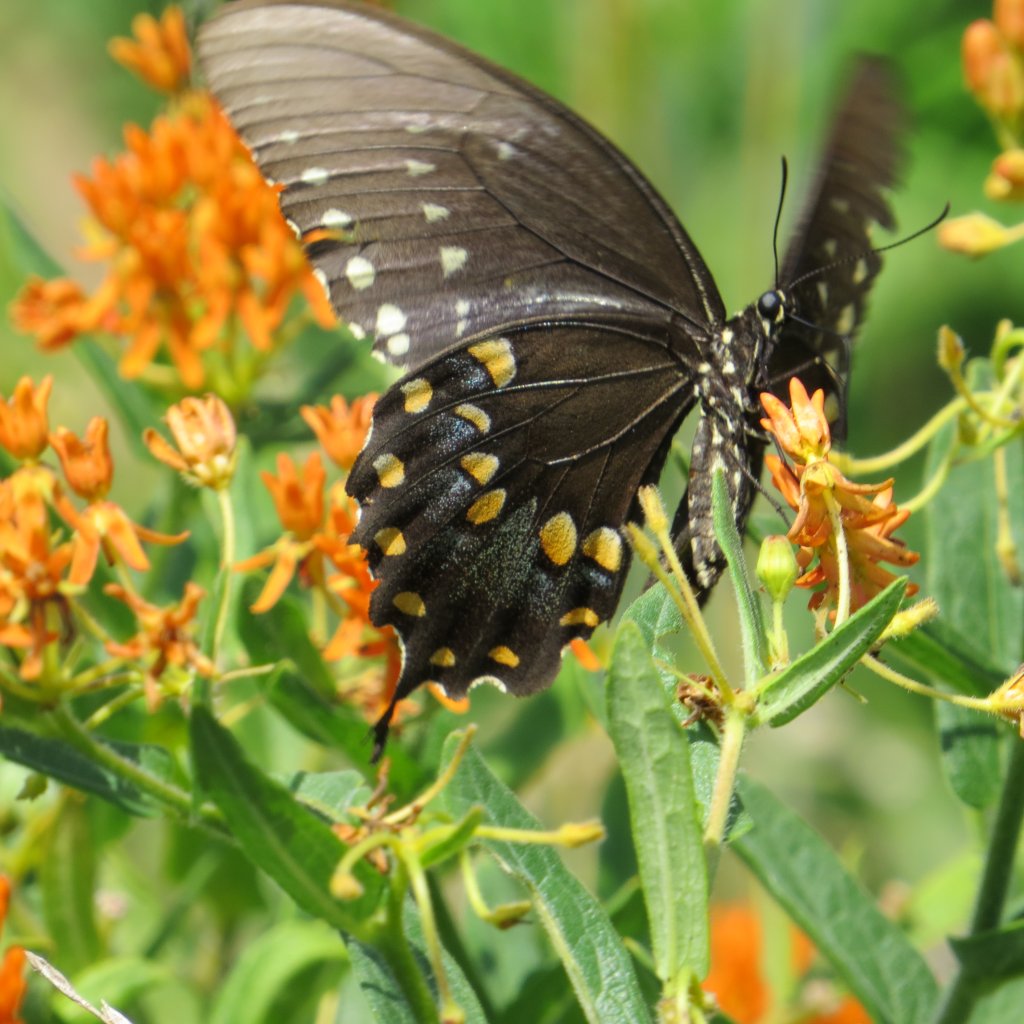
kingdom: Animalia
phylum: Arthropoda
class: Insecta
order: Lepidoptera
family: Papilionidae
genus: Pterourus
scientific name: Pterourus troilus
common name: Spicebush Swallowtail
